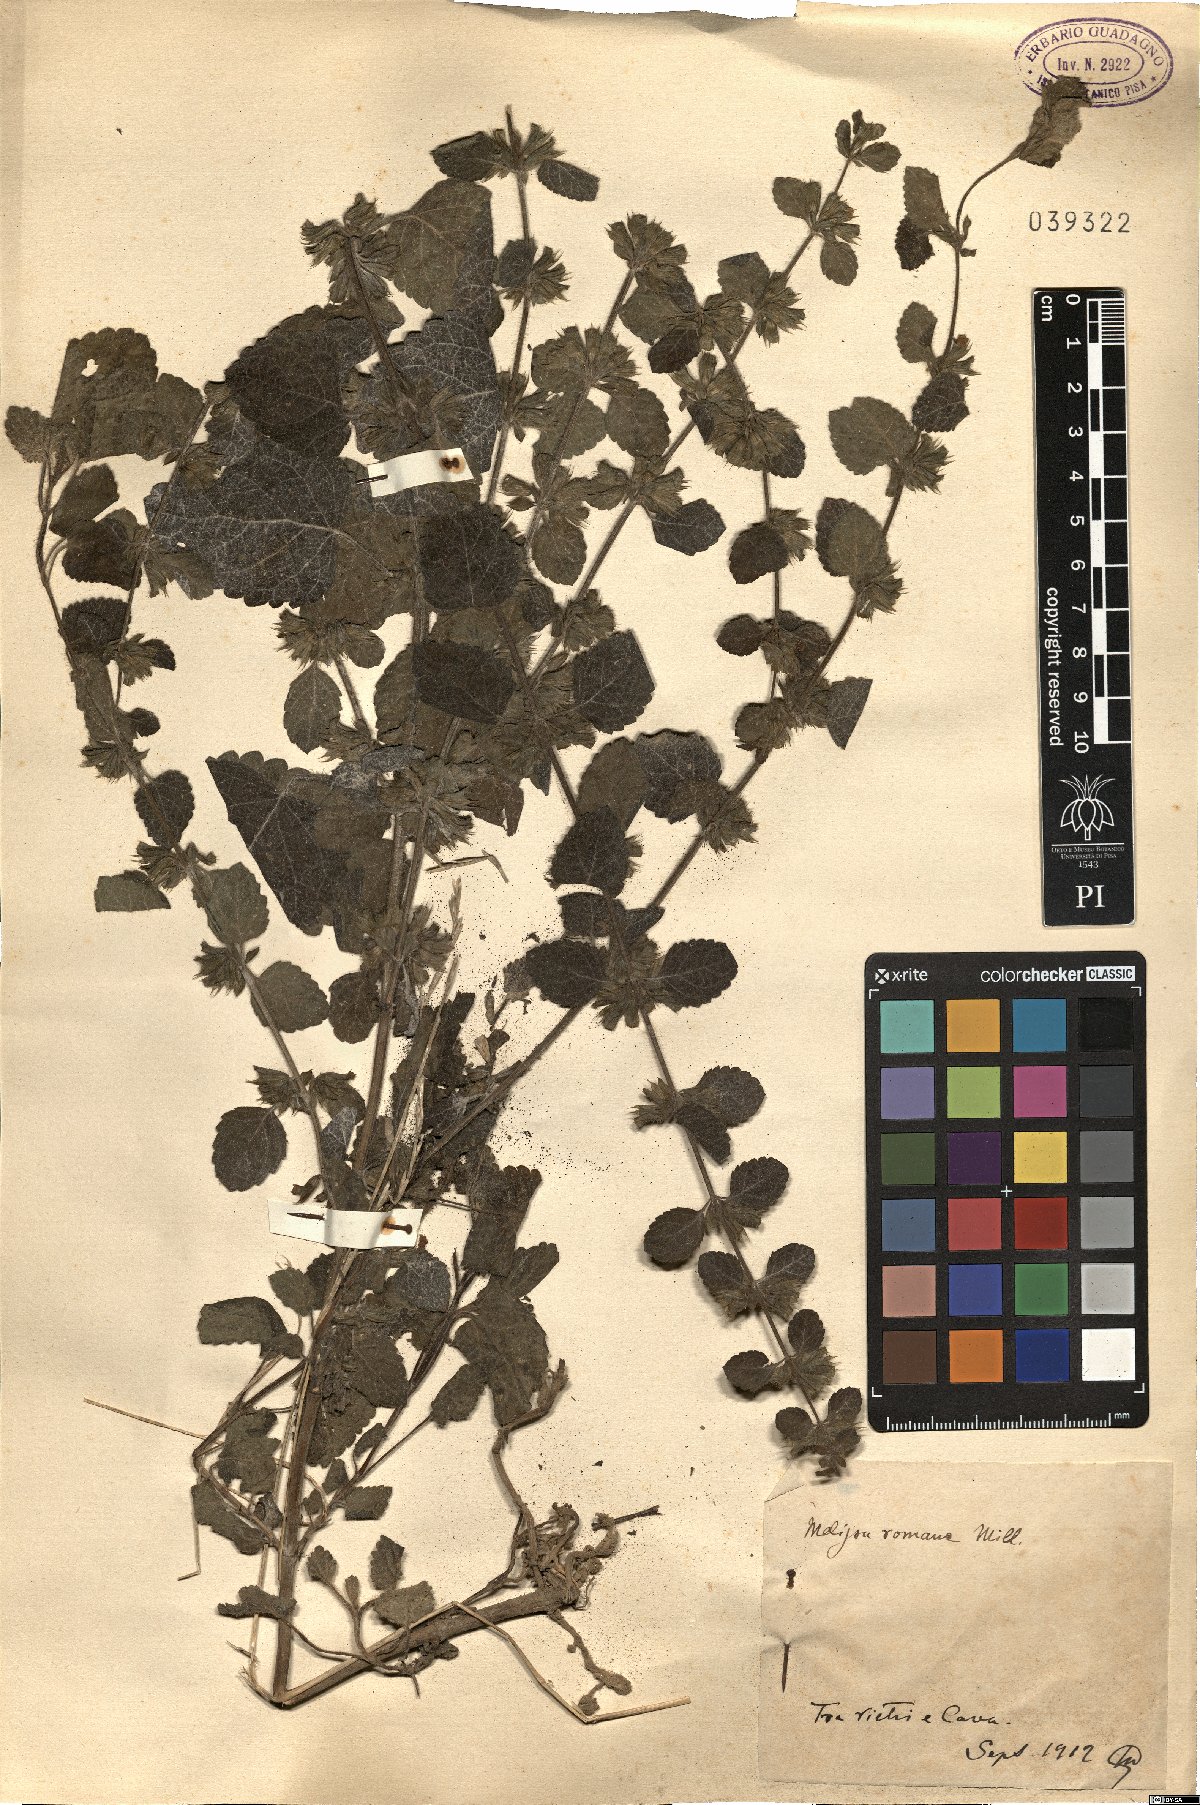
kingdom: Plantae
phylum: Tracheophyta
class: Magnoliopsida
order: Lamiales
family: Lamiaceae
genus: Melissa
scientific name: Melissa officinalis
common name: Balm
